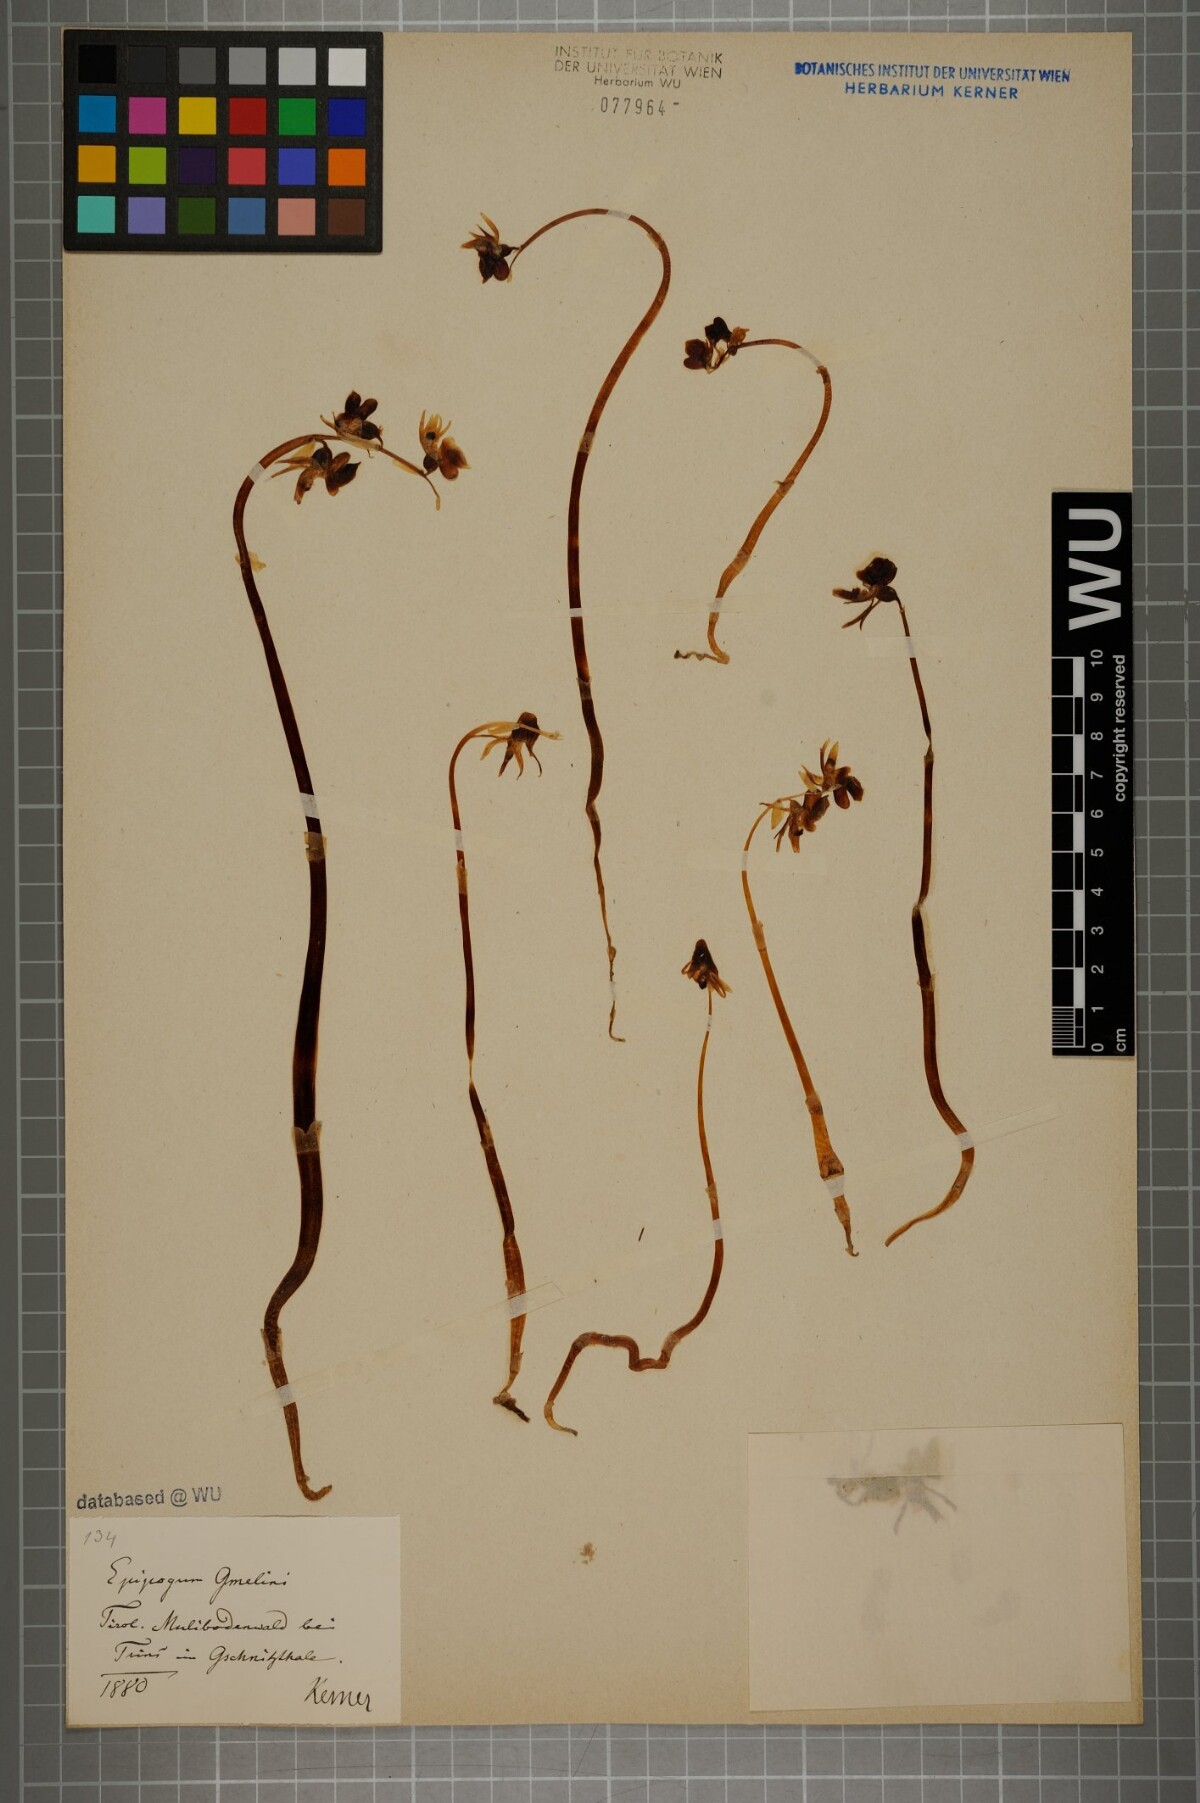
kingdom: Plantae
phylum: Tracheophyta
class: Liliopsida
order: Asparagales
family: Orchidaceae
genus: Epipogium
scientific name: Epipogium aphyllum
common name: Ghost orchid
